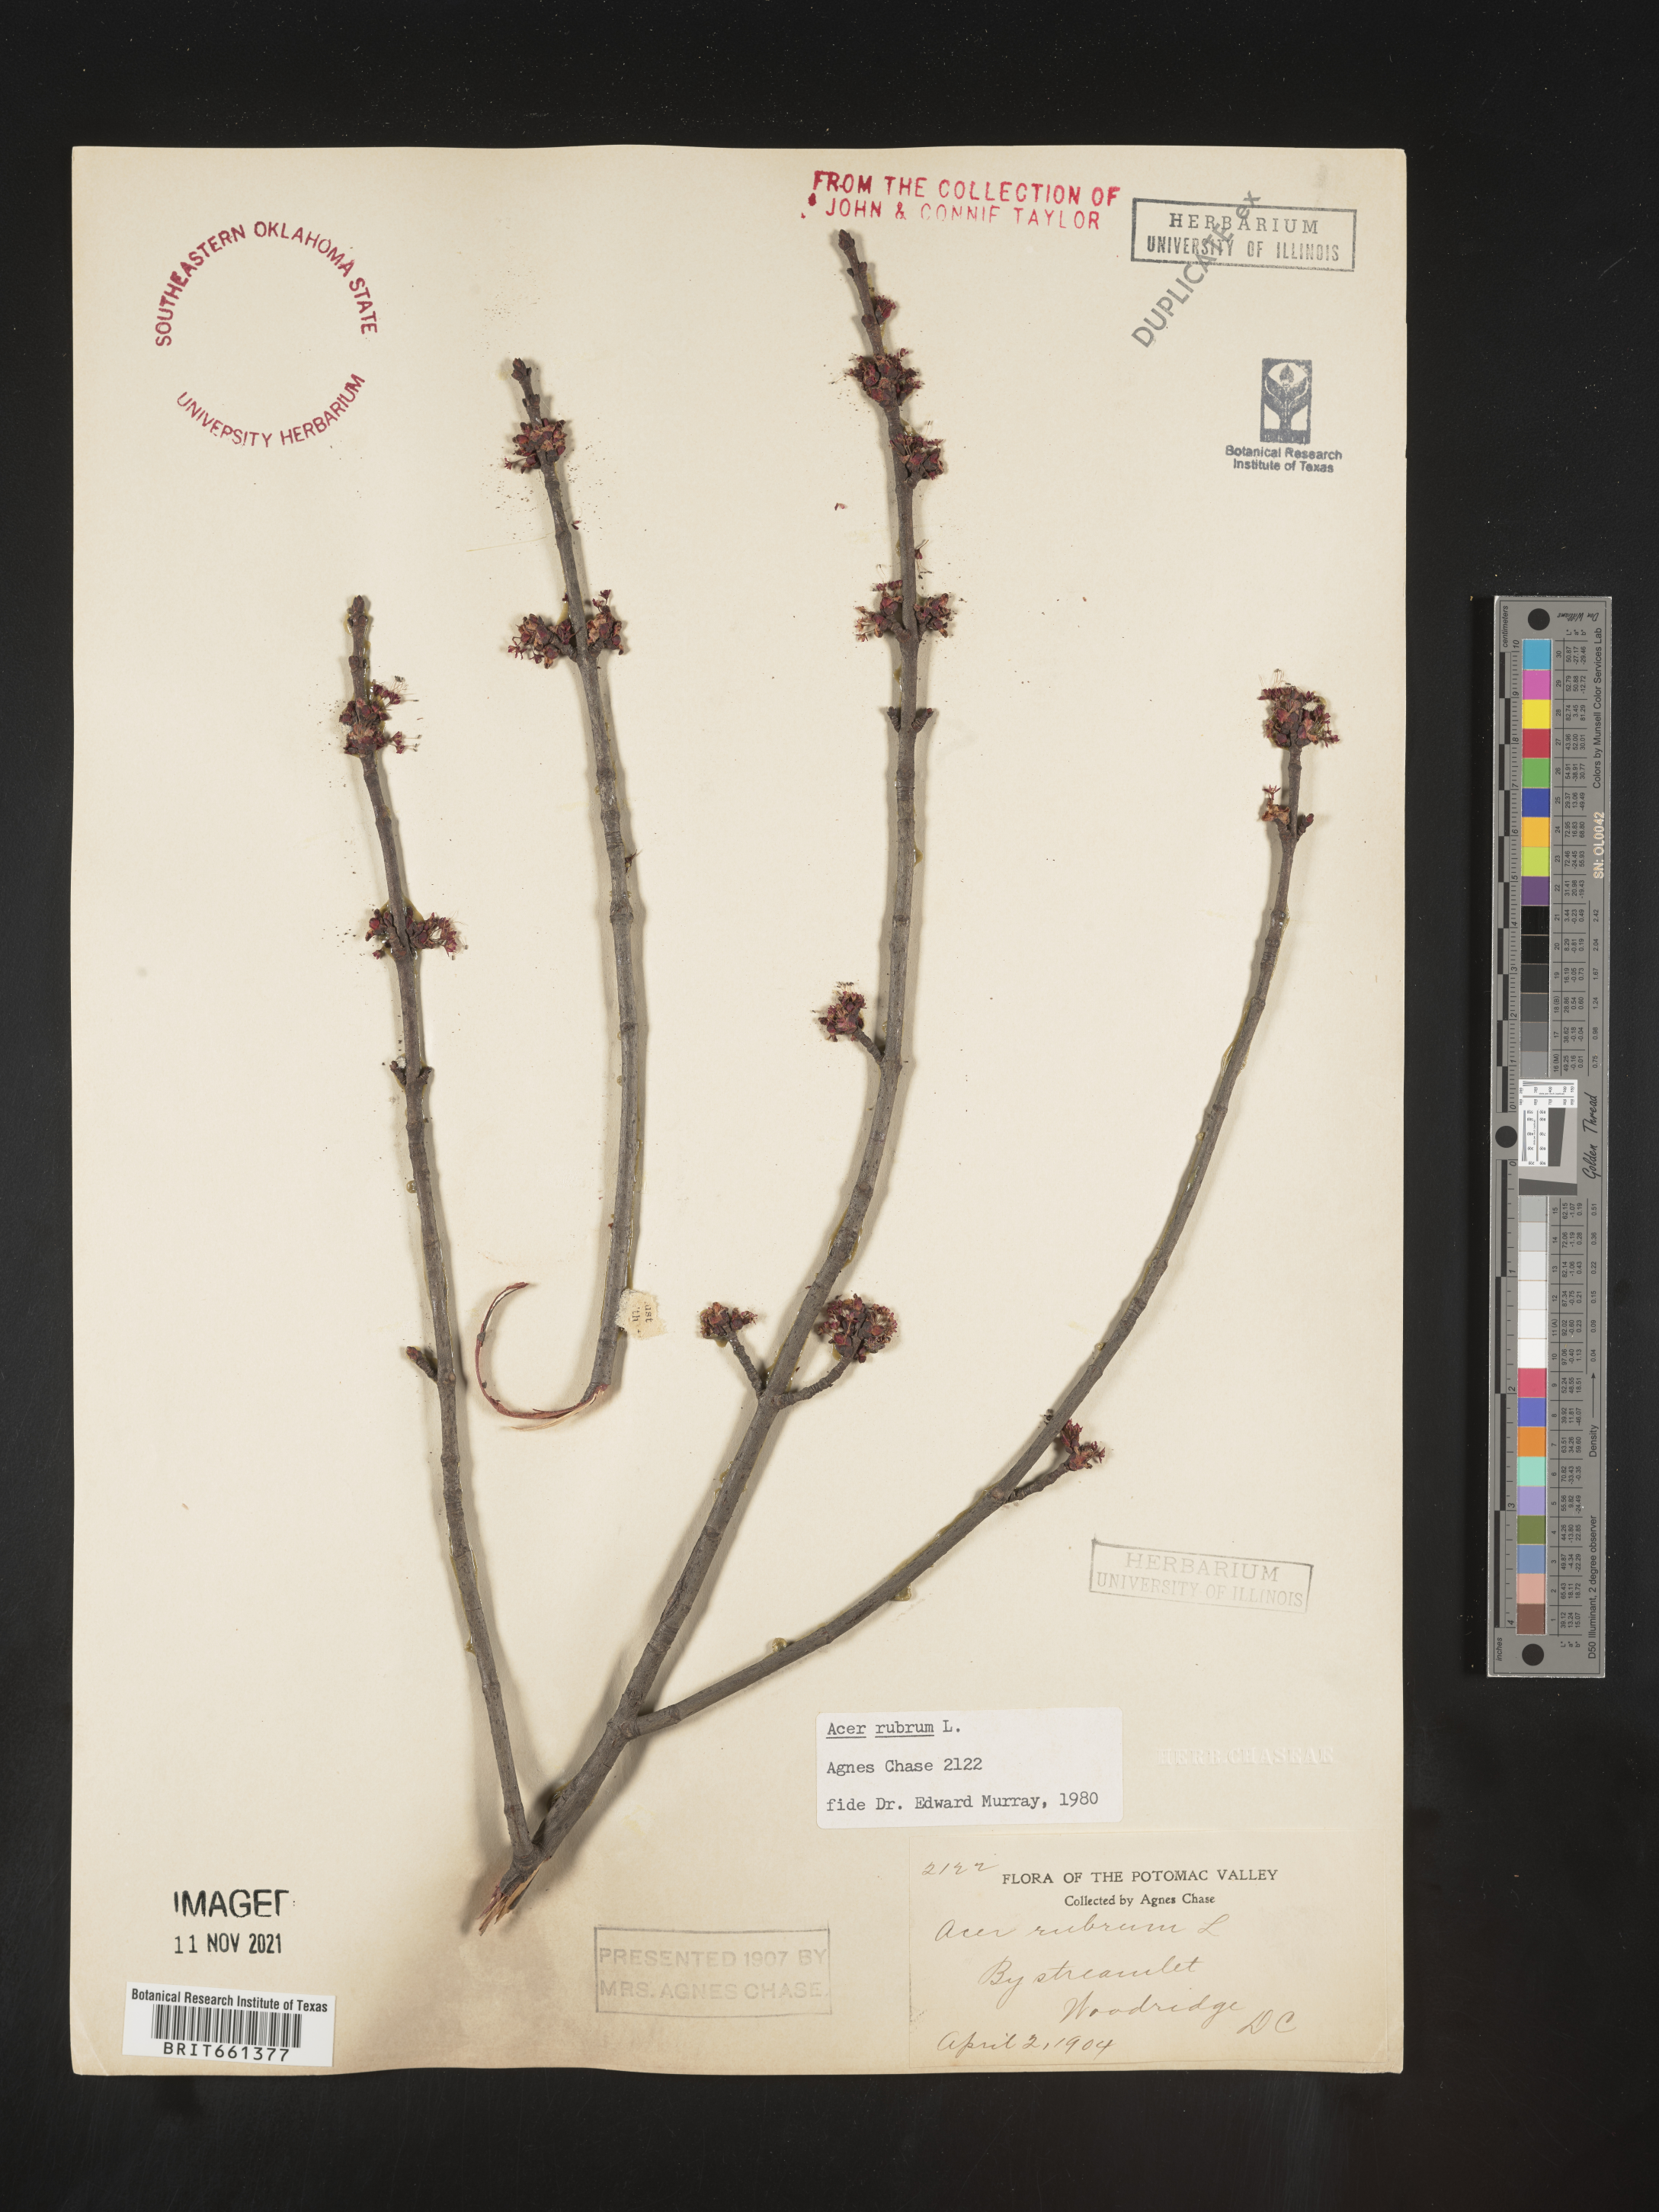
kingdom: Plantae
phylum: Tracheophyta
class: Magnoliopsida
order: Sapindales
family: Sapindaceae
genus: Acer
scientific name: Acer rubrum
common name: Red maple
